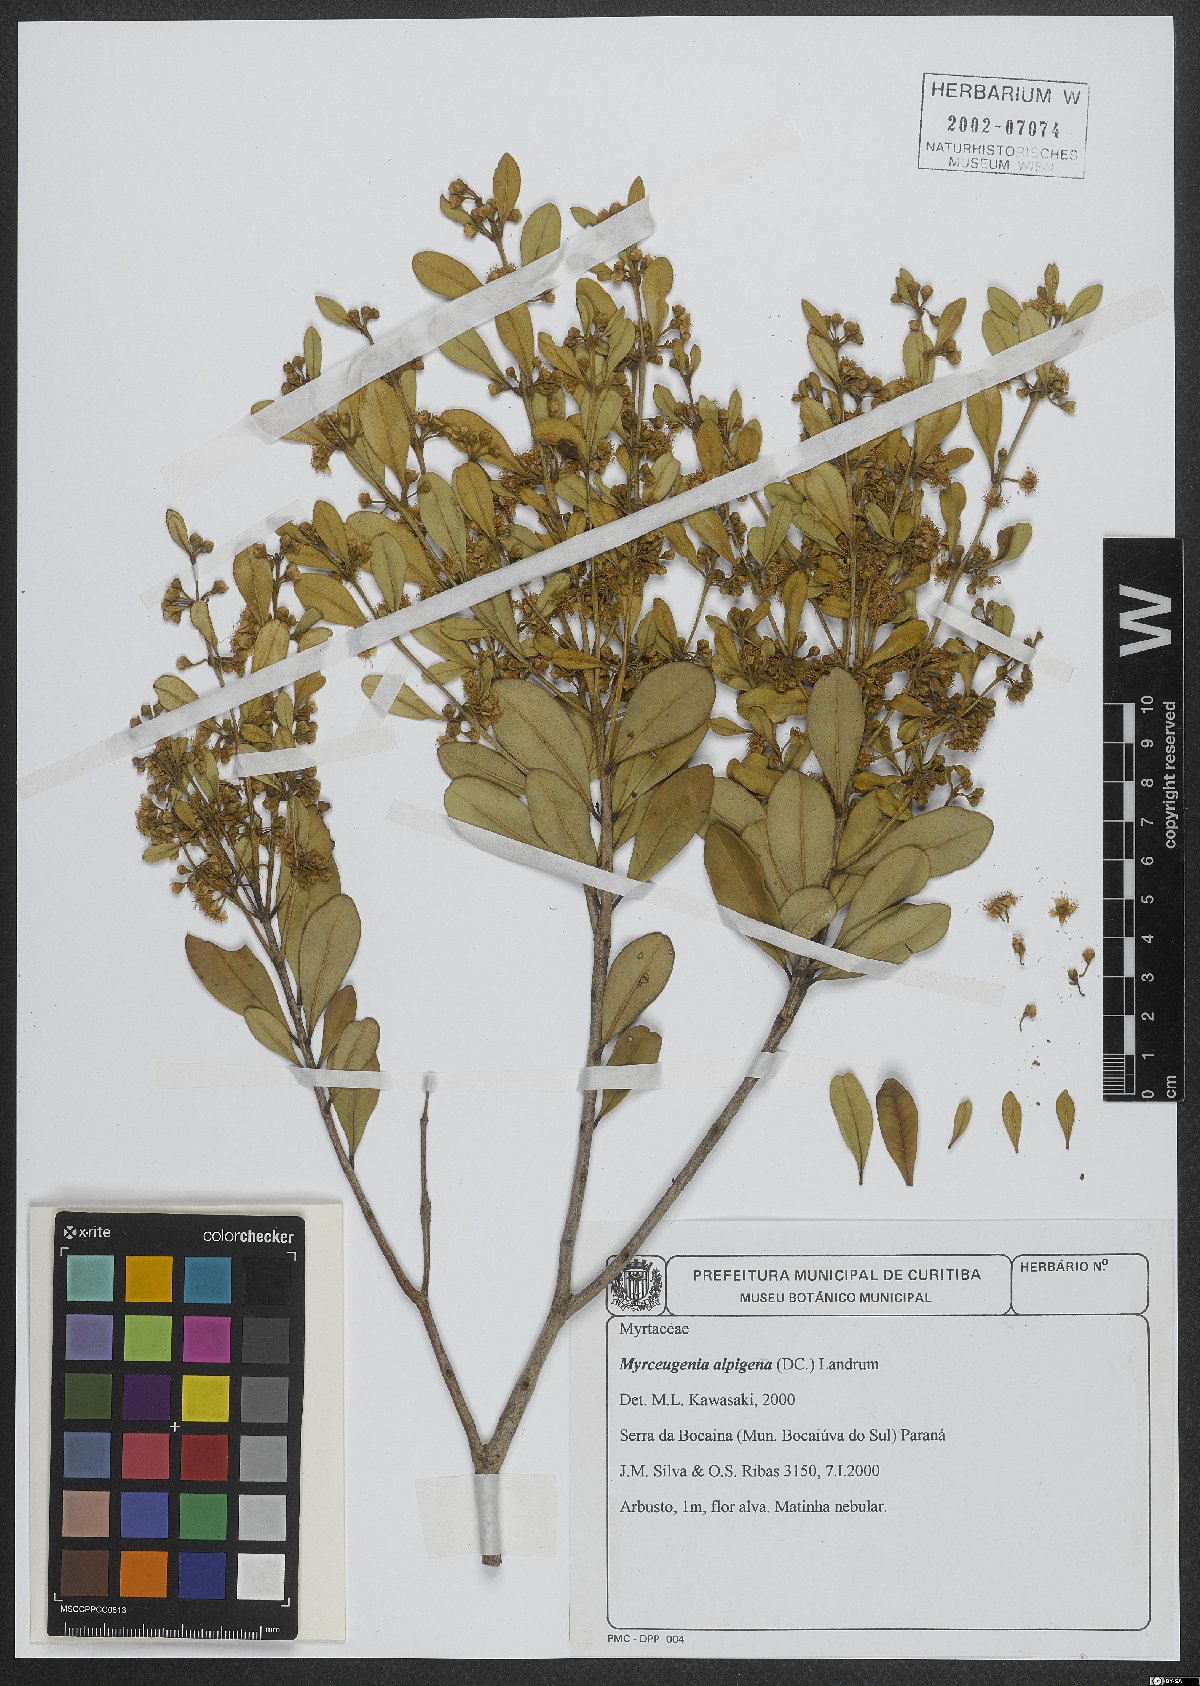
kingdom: Plantae
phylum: Tracheophyta
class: Magnoliopsida
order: Myrtales
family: Myrtaceae
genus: Myrceugenia
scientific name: Myrceugenia alpigena
